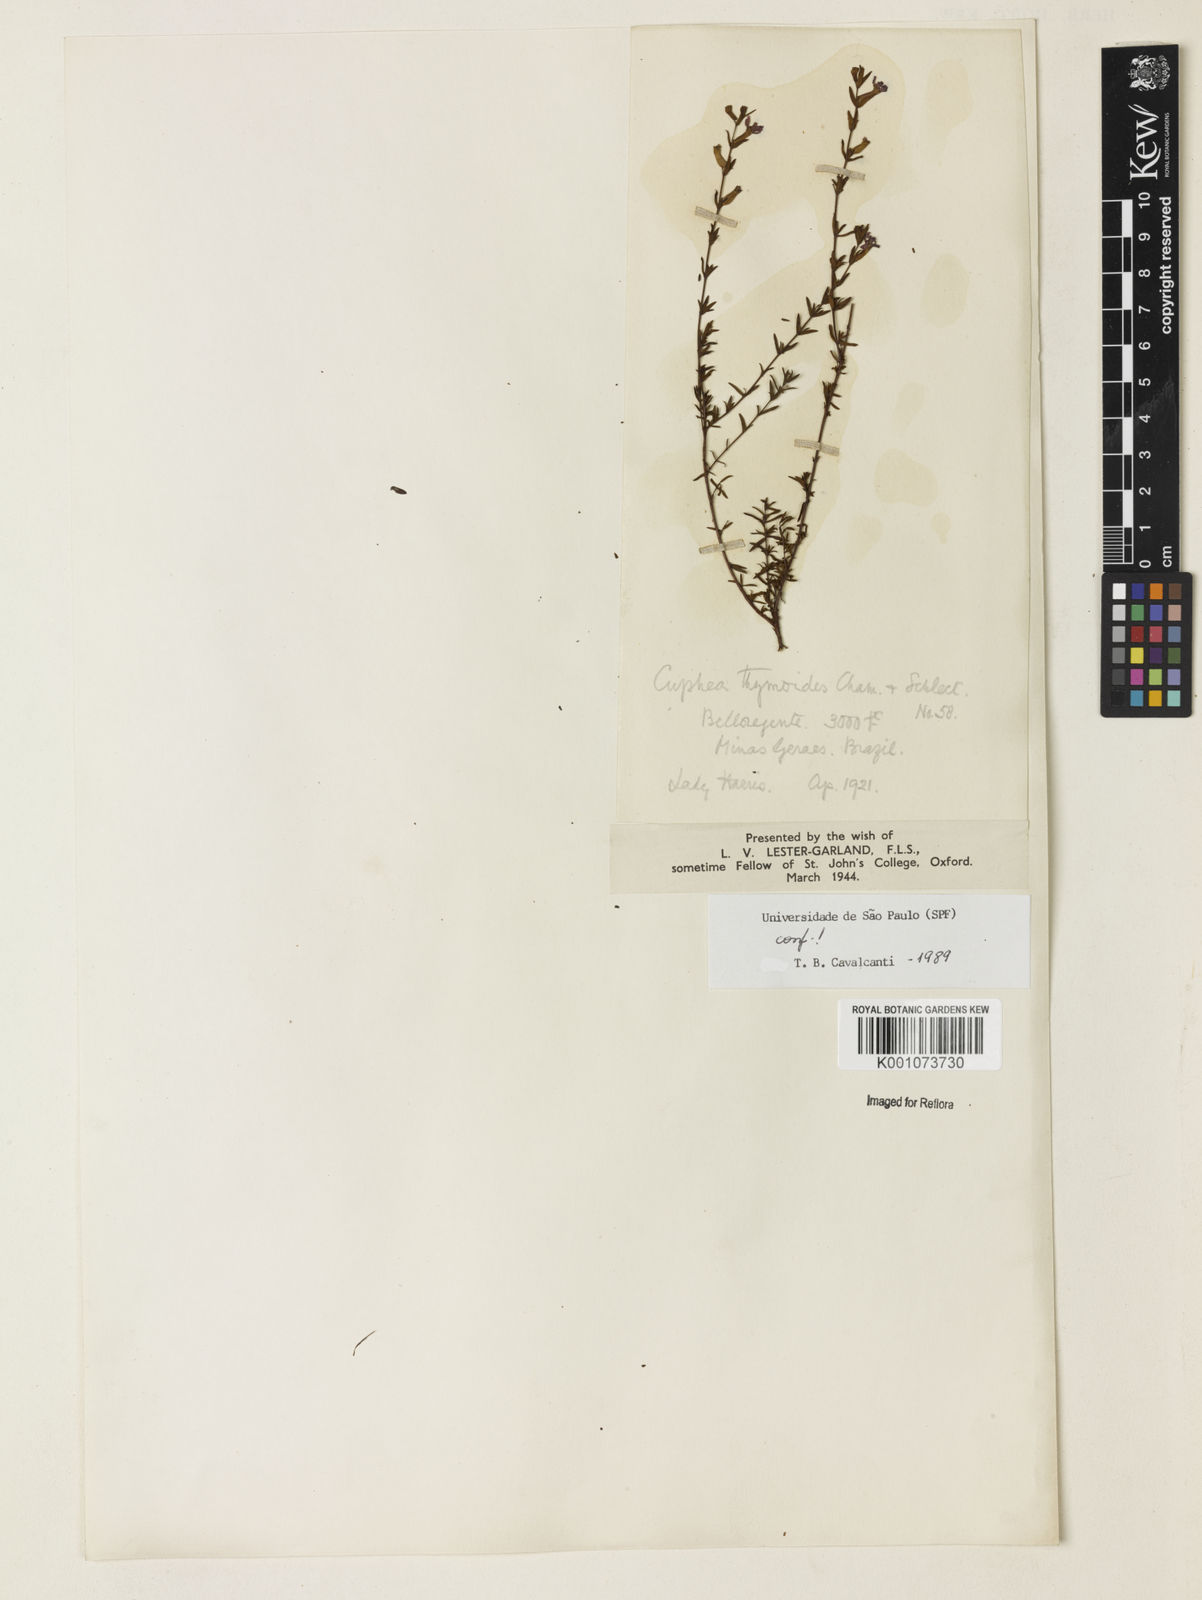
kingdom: Plantae
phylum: Tracheophyta
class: Magnoliopsida
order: Myrtales
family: Lythraceae
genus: Cuphea
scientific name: Cuphea thymoides
